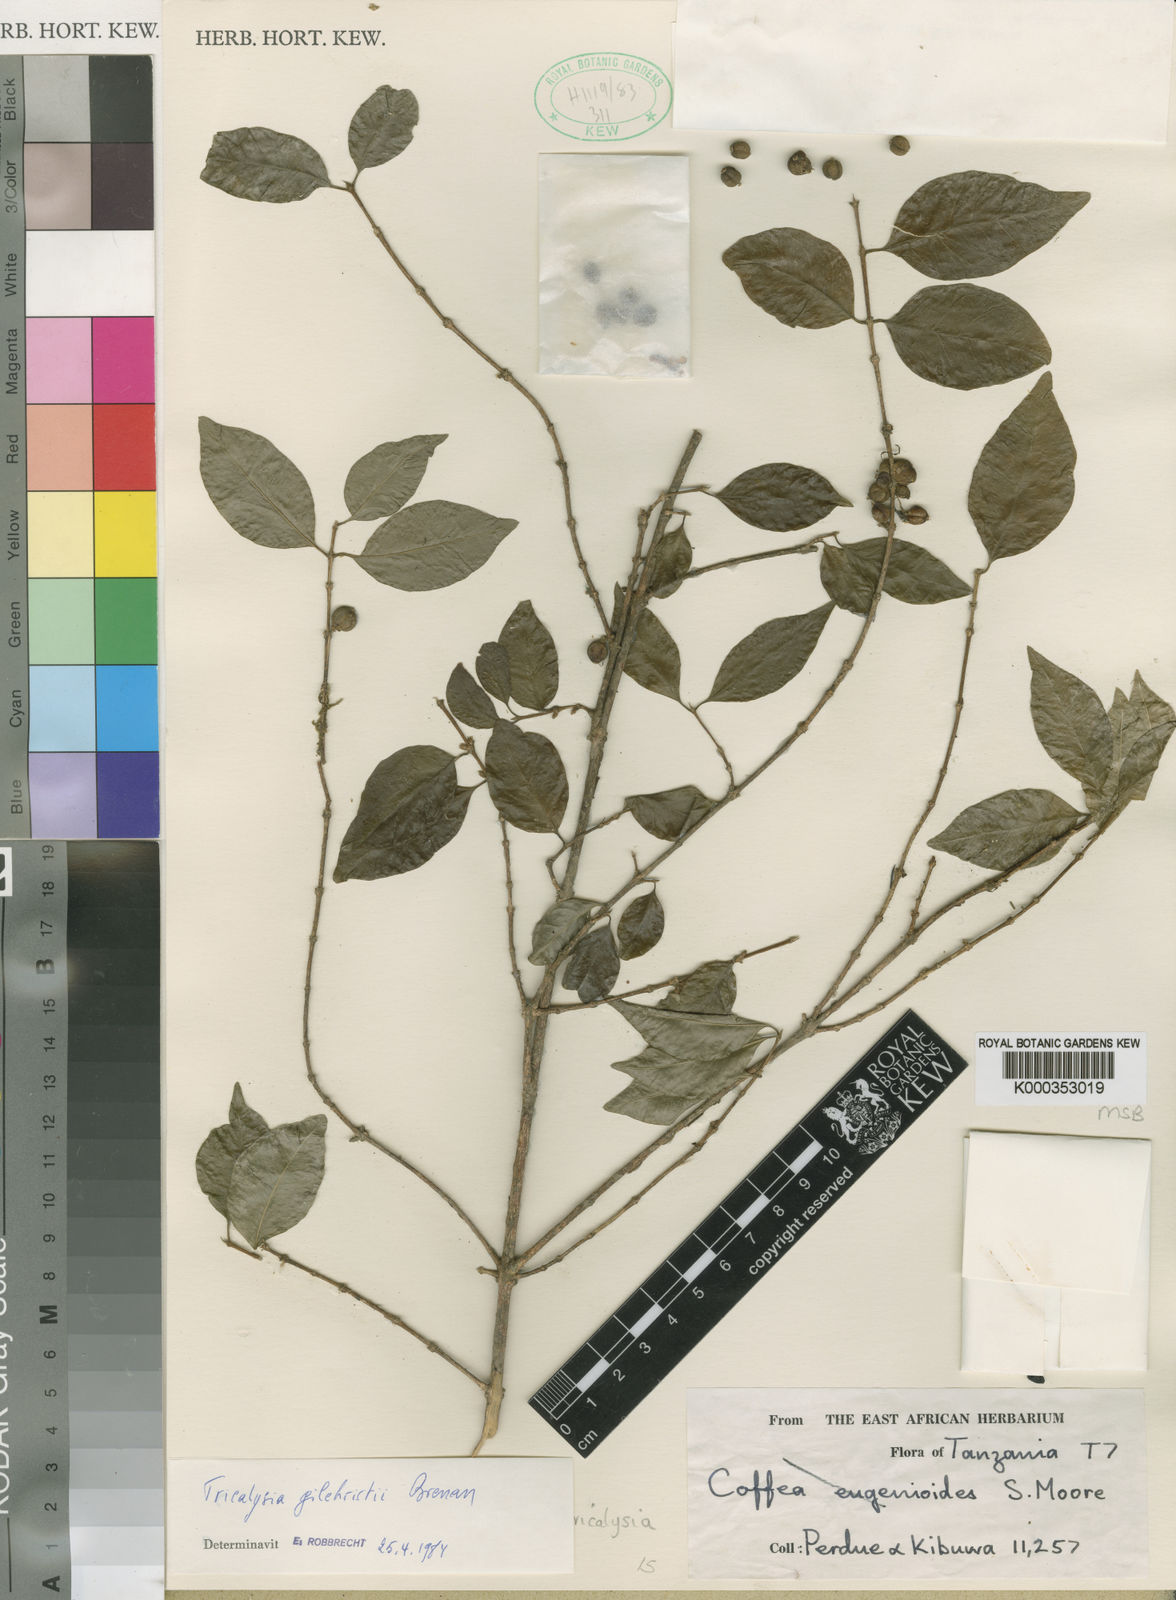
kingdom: Plantae
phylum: Tracheophyta
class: Magnoliopsida
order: Gentianales
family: Rubiaceae
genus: Tricalysia
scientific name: Tricalysia gilchristii
